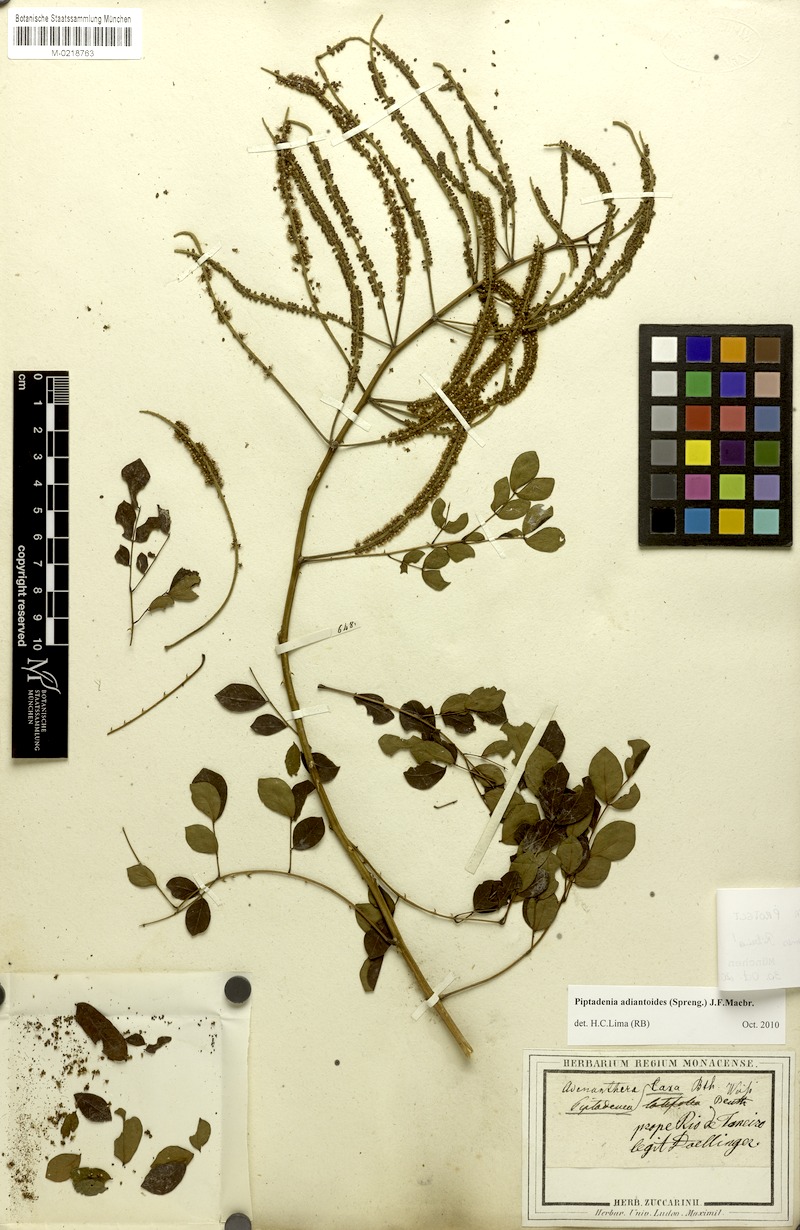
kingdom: Plantae
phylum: Tracheophyta
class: Magnoliopsida
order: Fabales
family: Fabaceae
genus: Piptadenia
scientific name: Piptadenia adiantoides
